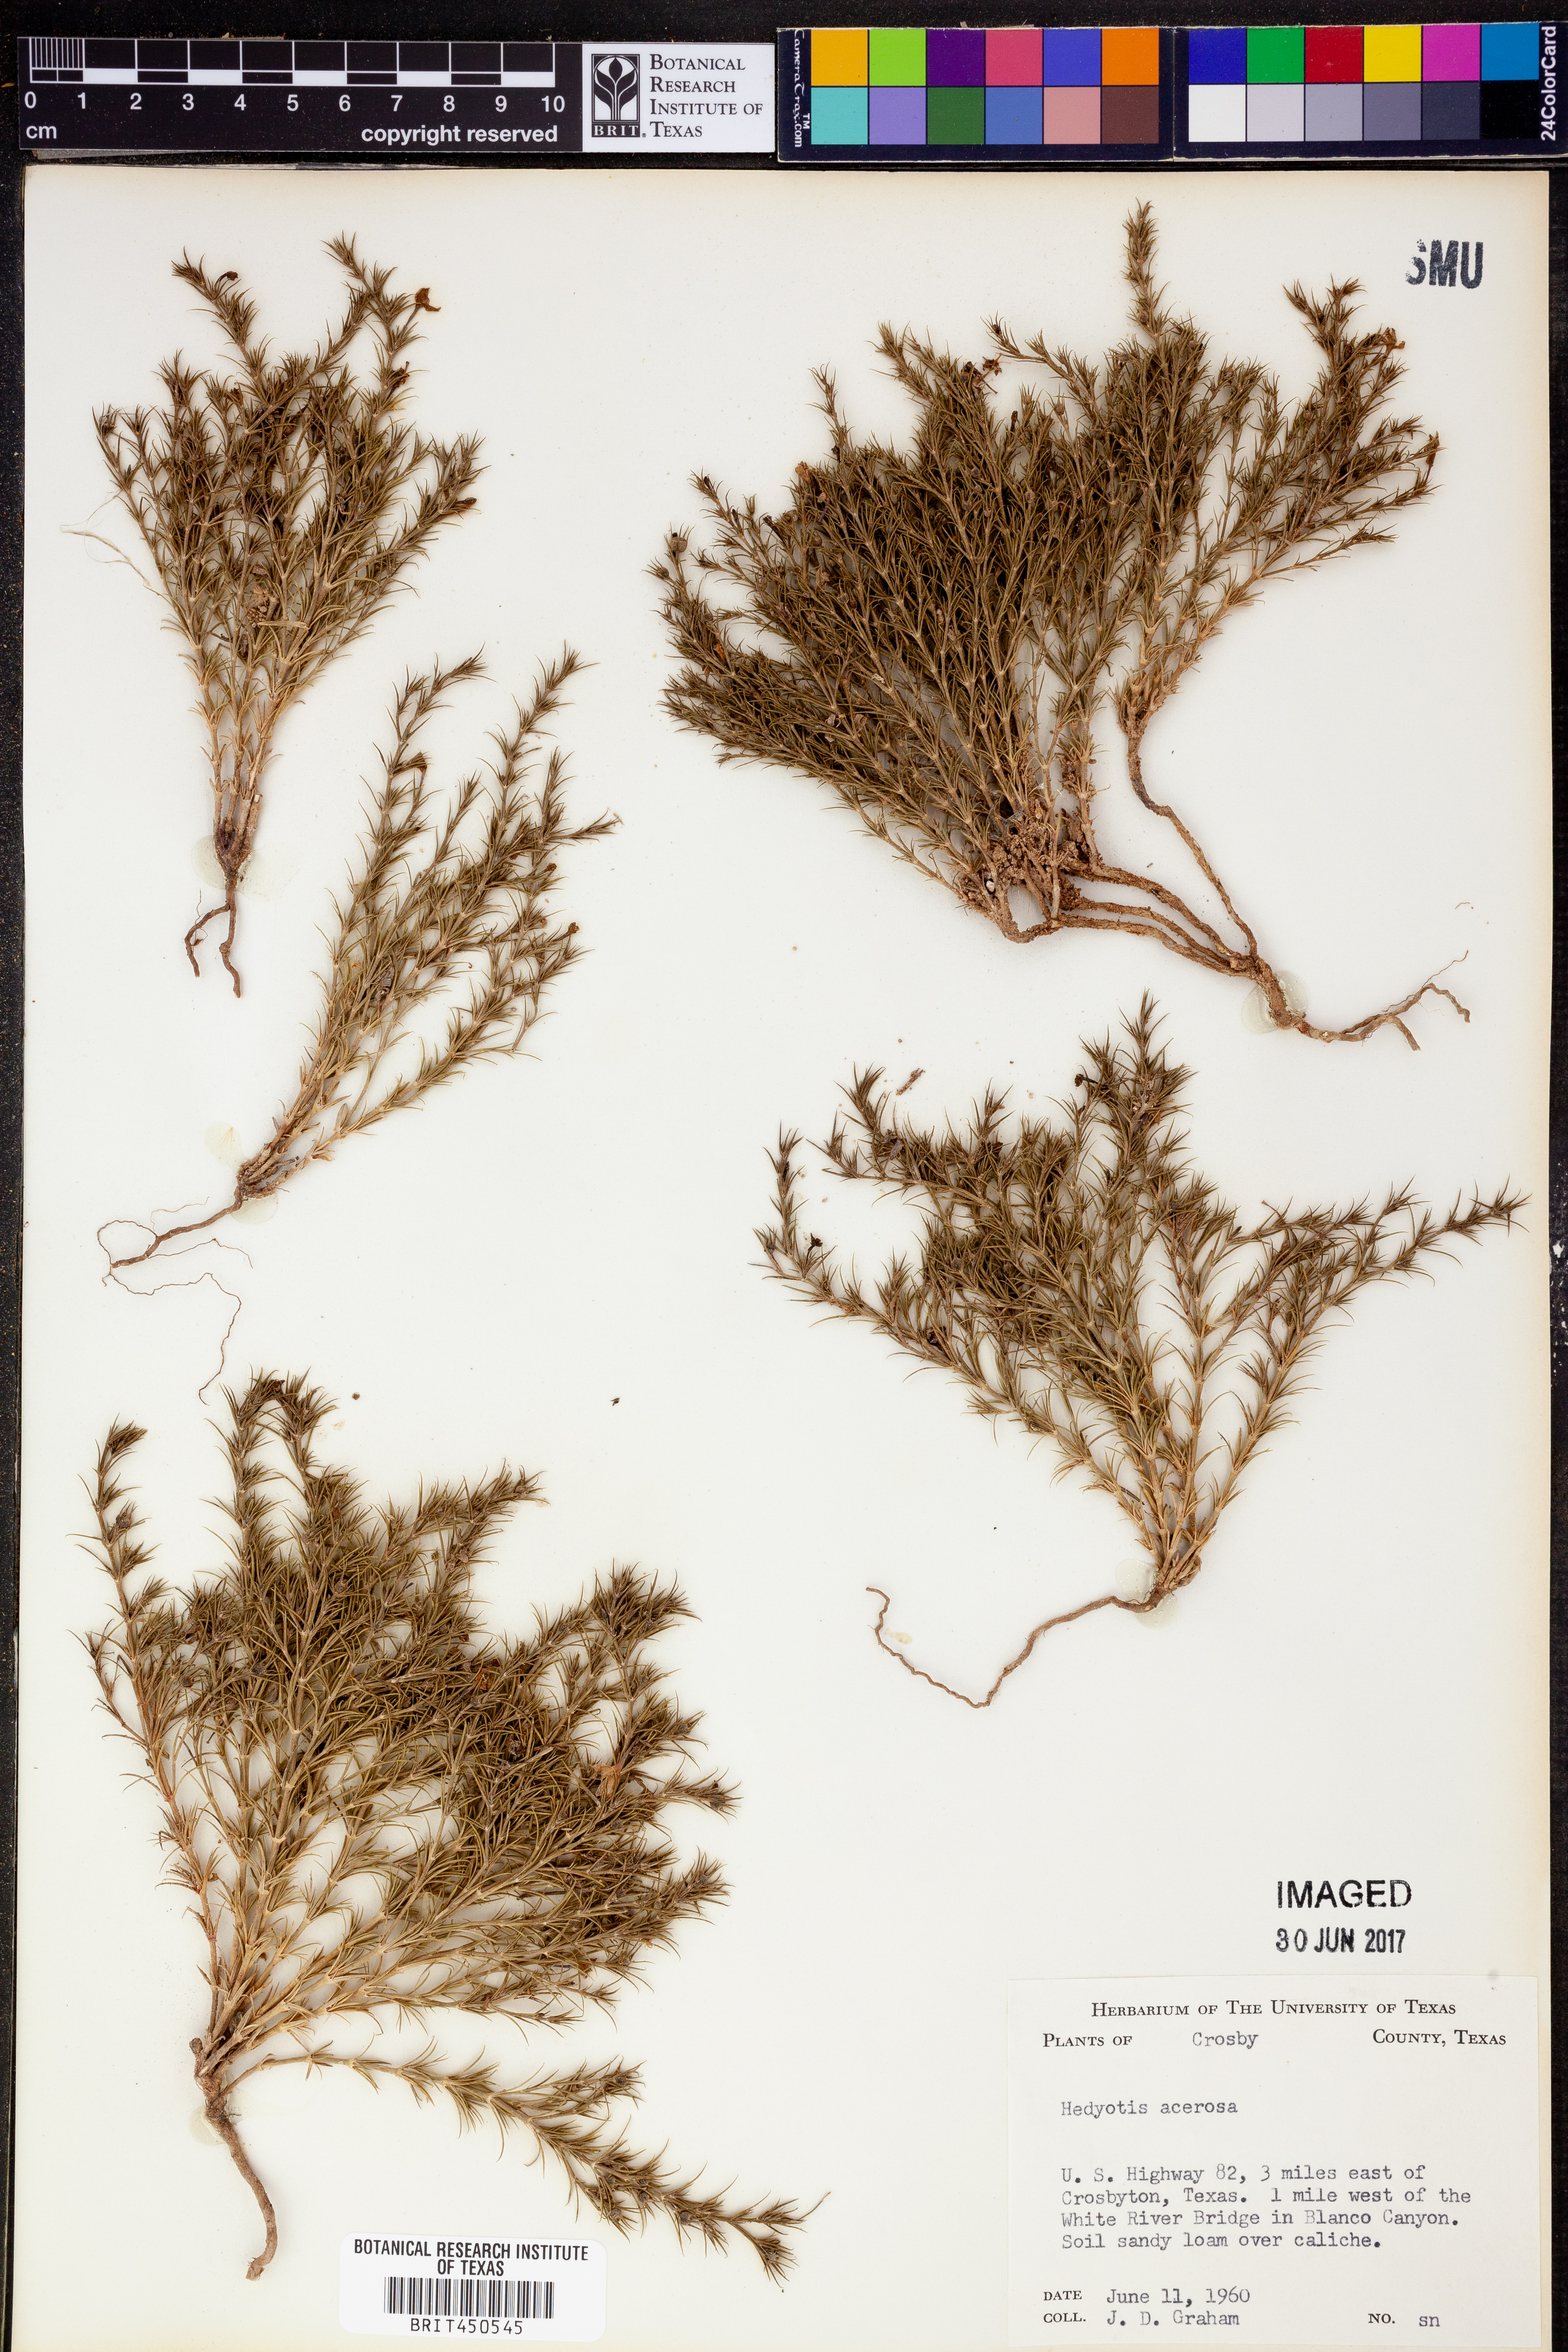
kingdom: Plantae
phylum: Tracheophyta
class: Magnoliopsida
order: Gentianales
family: Rubiaceae
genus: Houstonia
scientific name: Houstonia acerosa
